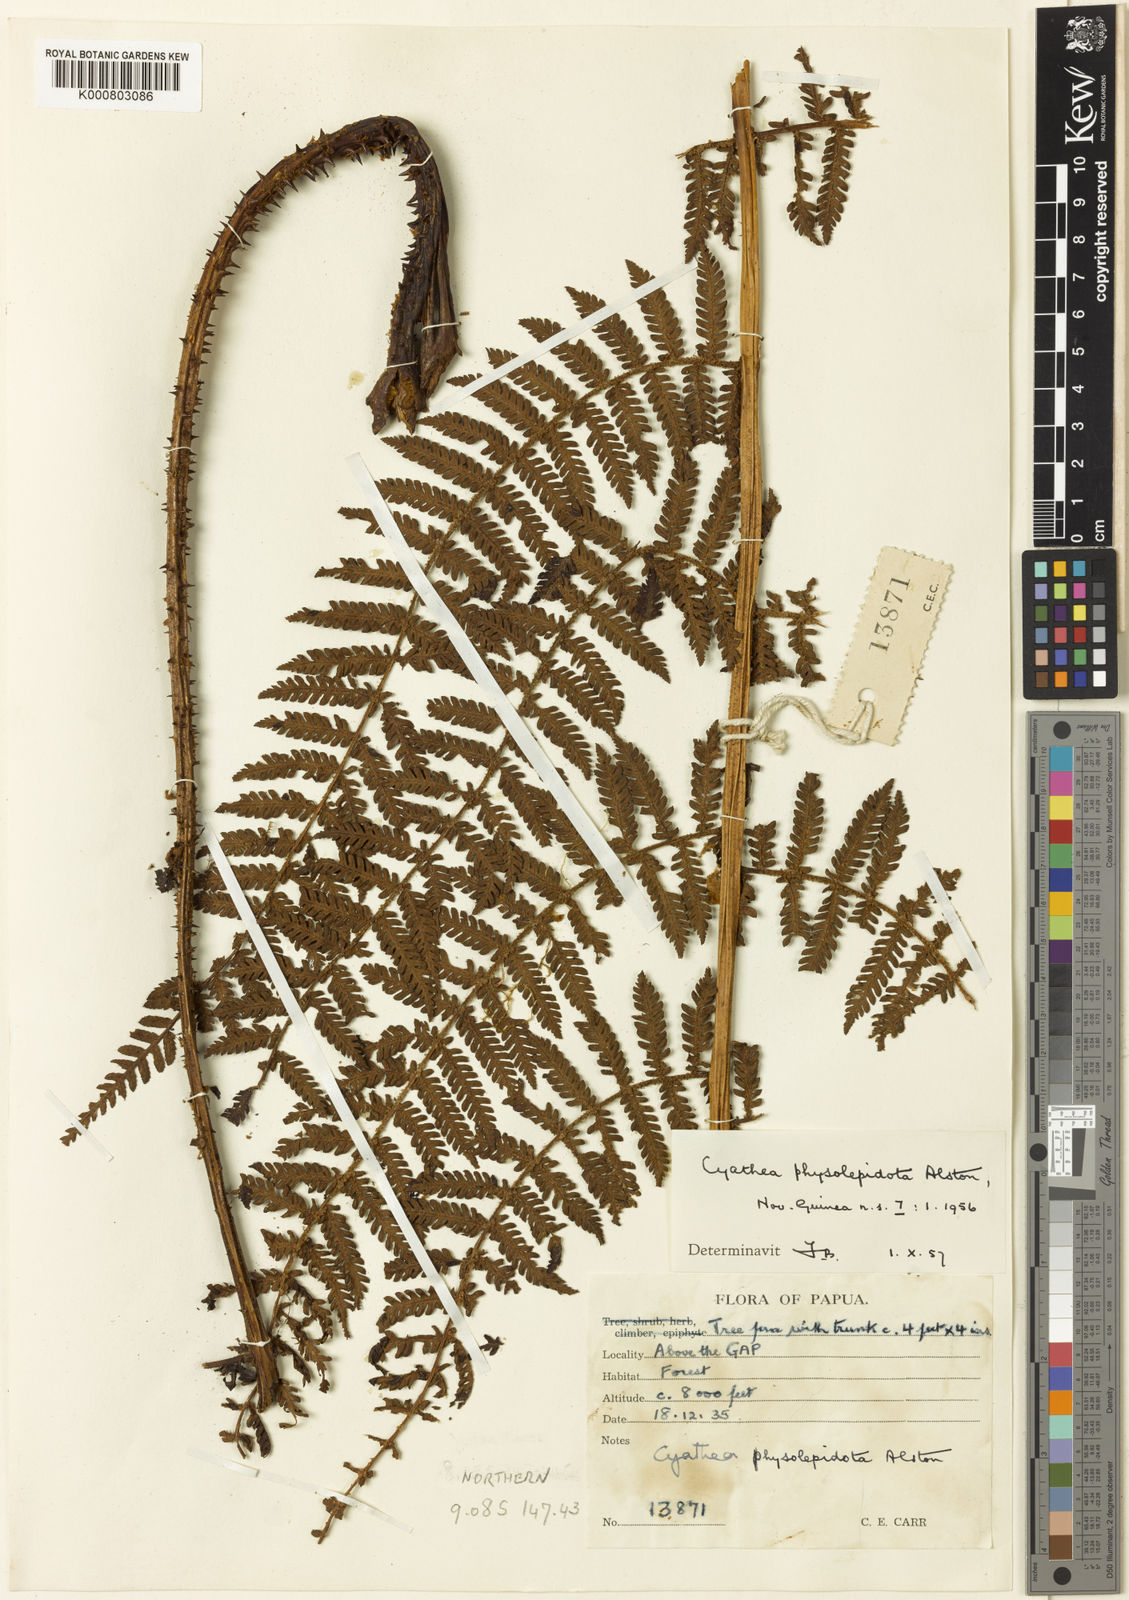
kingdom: Plantae
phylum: Tracheophyta
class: Polypodiopsida
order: Cyatheales
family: Cyatheaceae
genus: Alsophila
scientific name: Alsophila physolepidota
